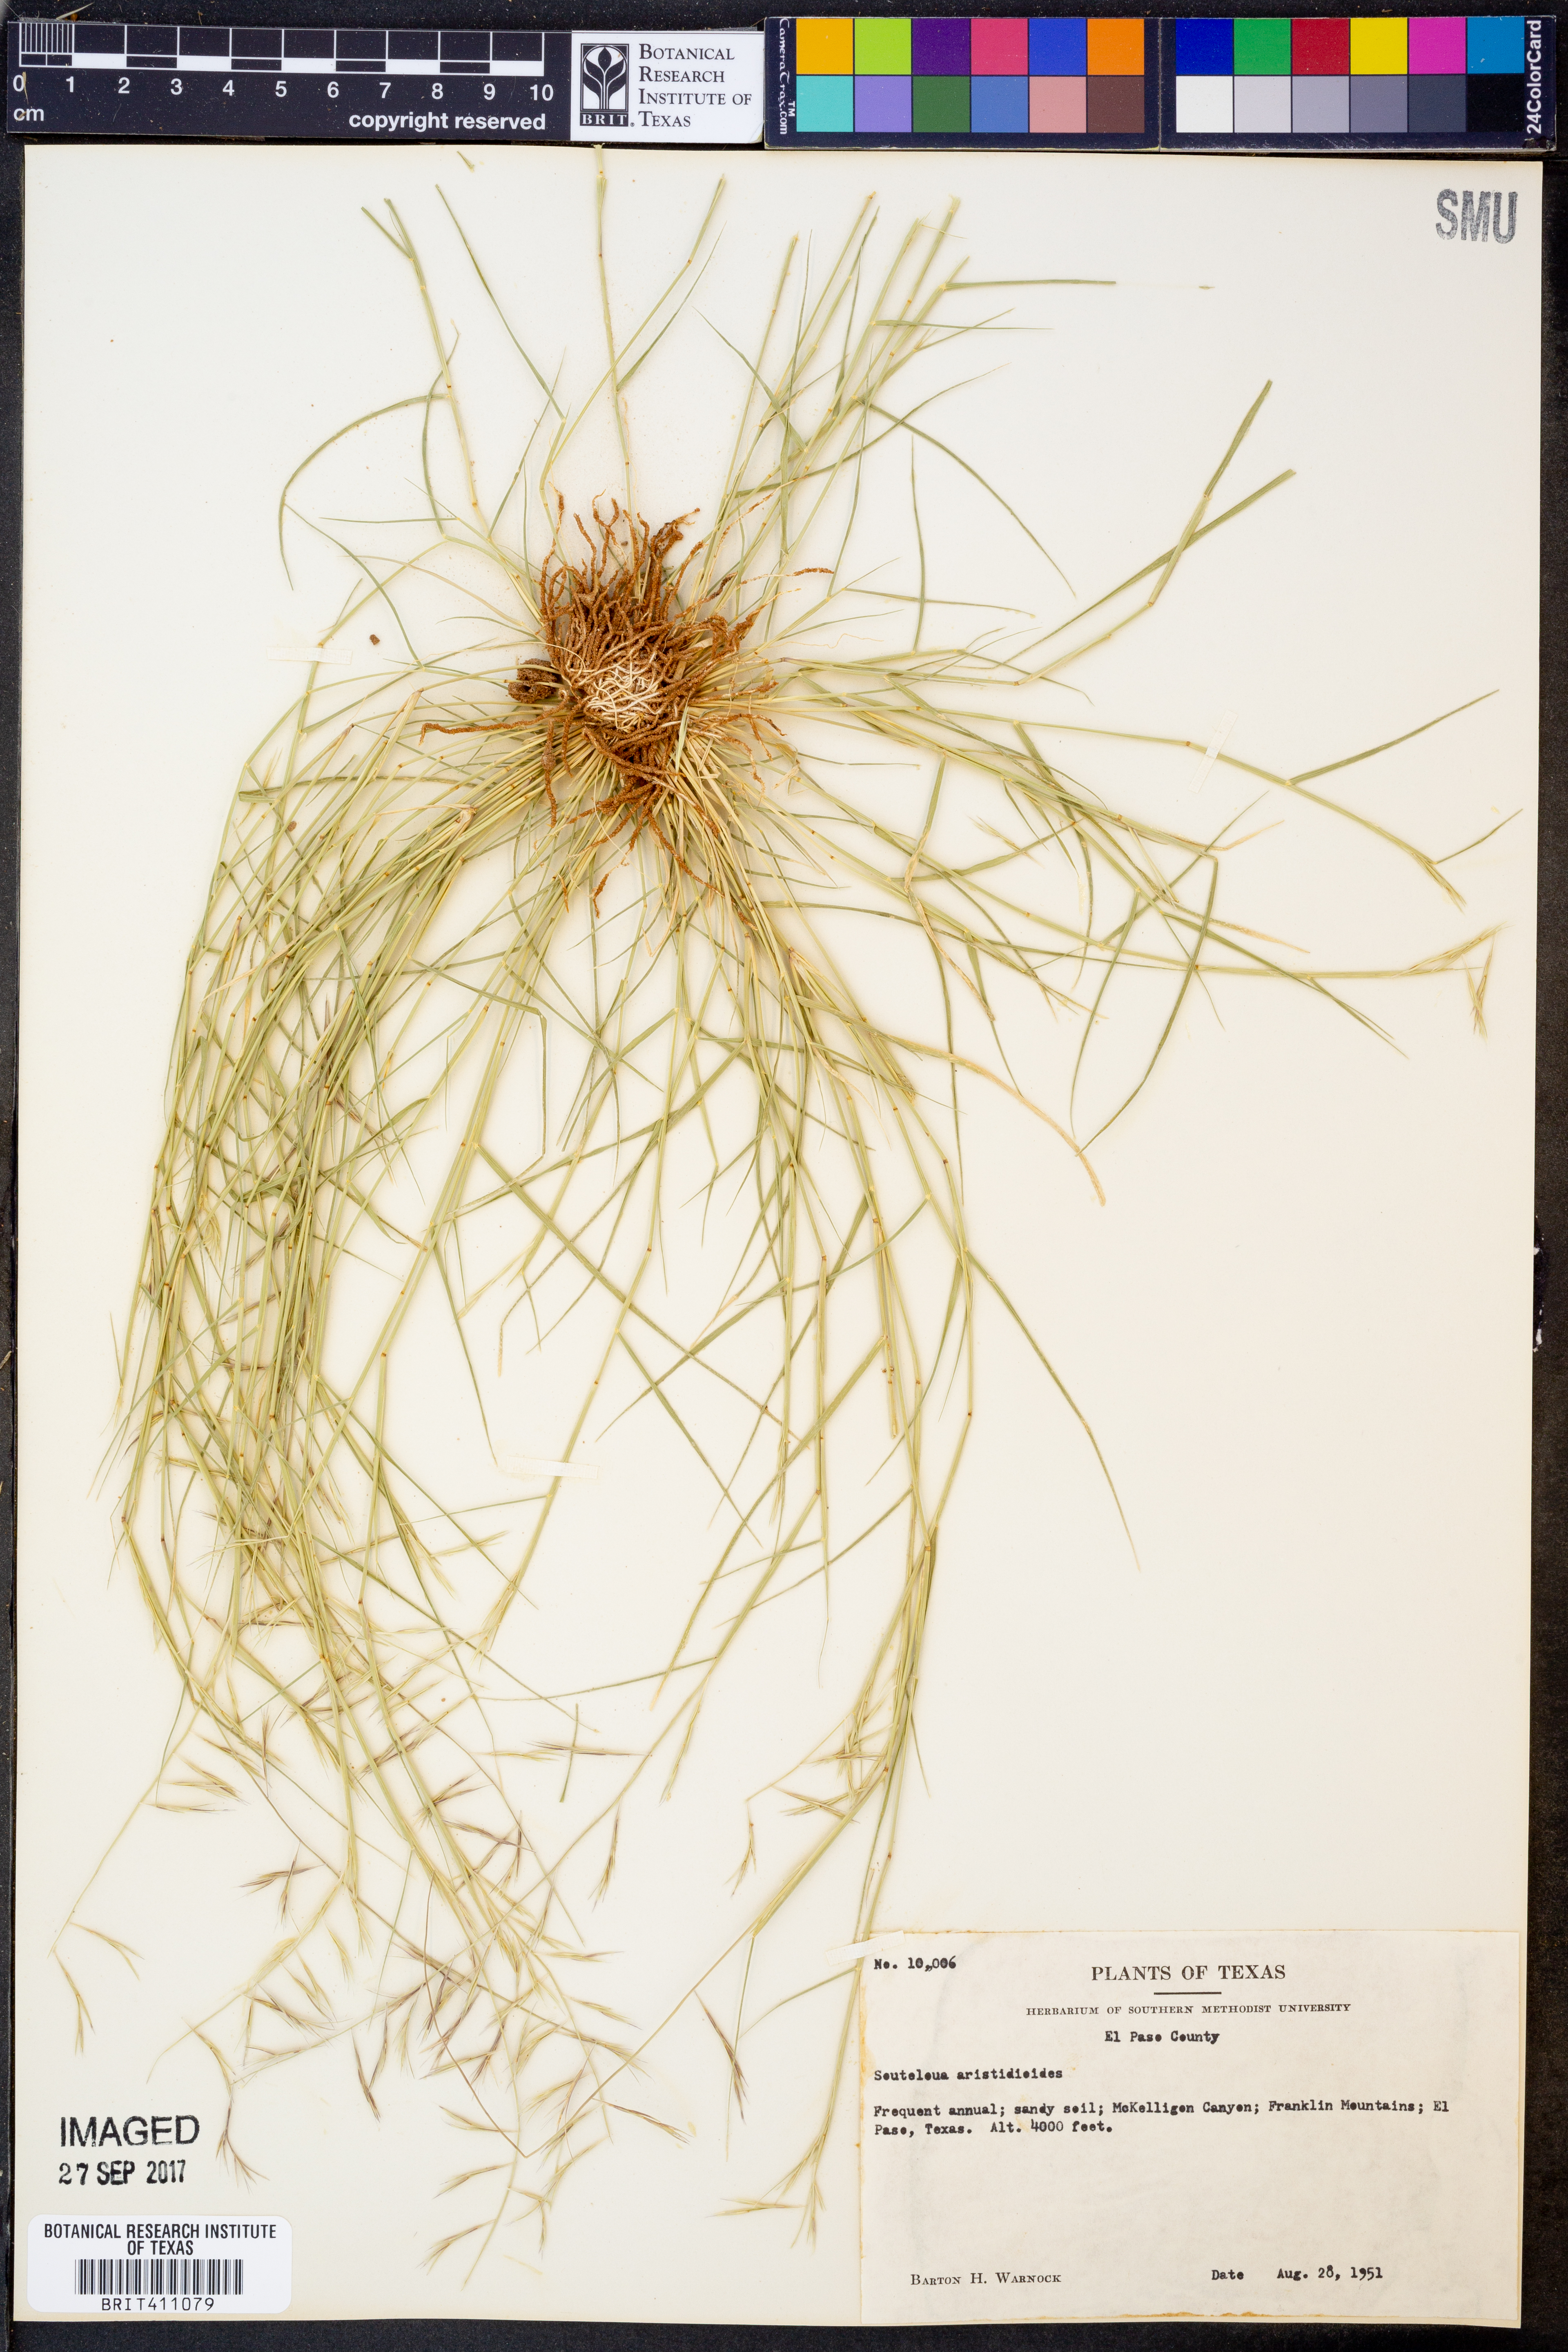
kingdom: Plantae
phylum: Tracheophyta
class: Liliopsida
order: Poales
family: Poaceae
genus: Bouteloua
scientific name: Bouteloua aristidoides
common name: Needle grama
